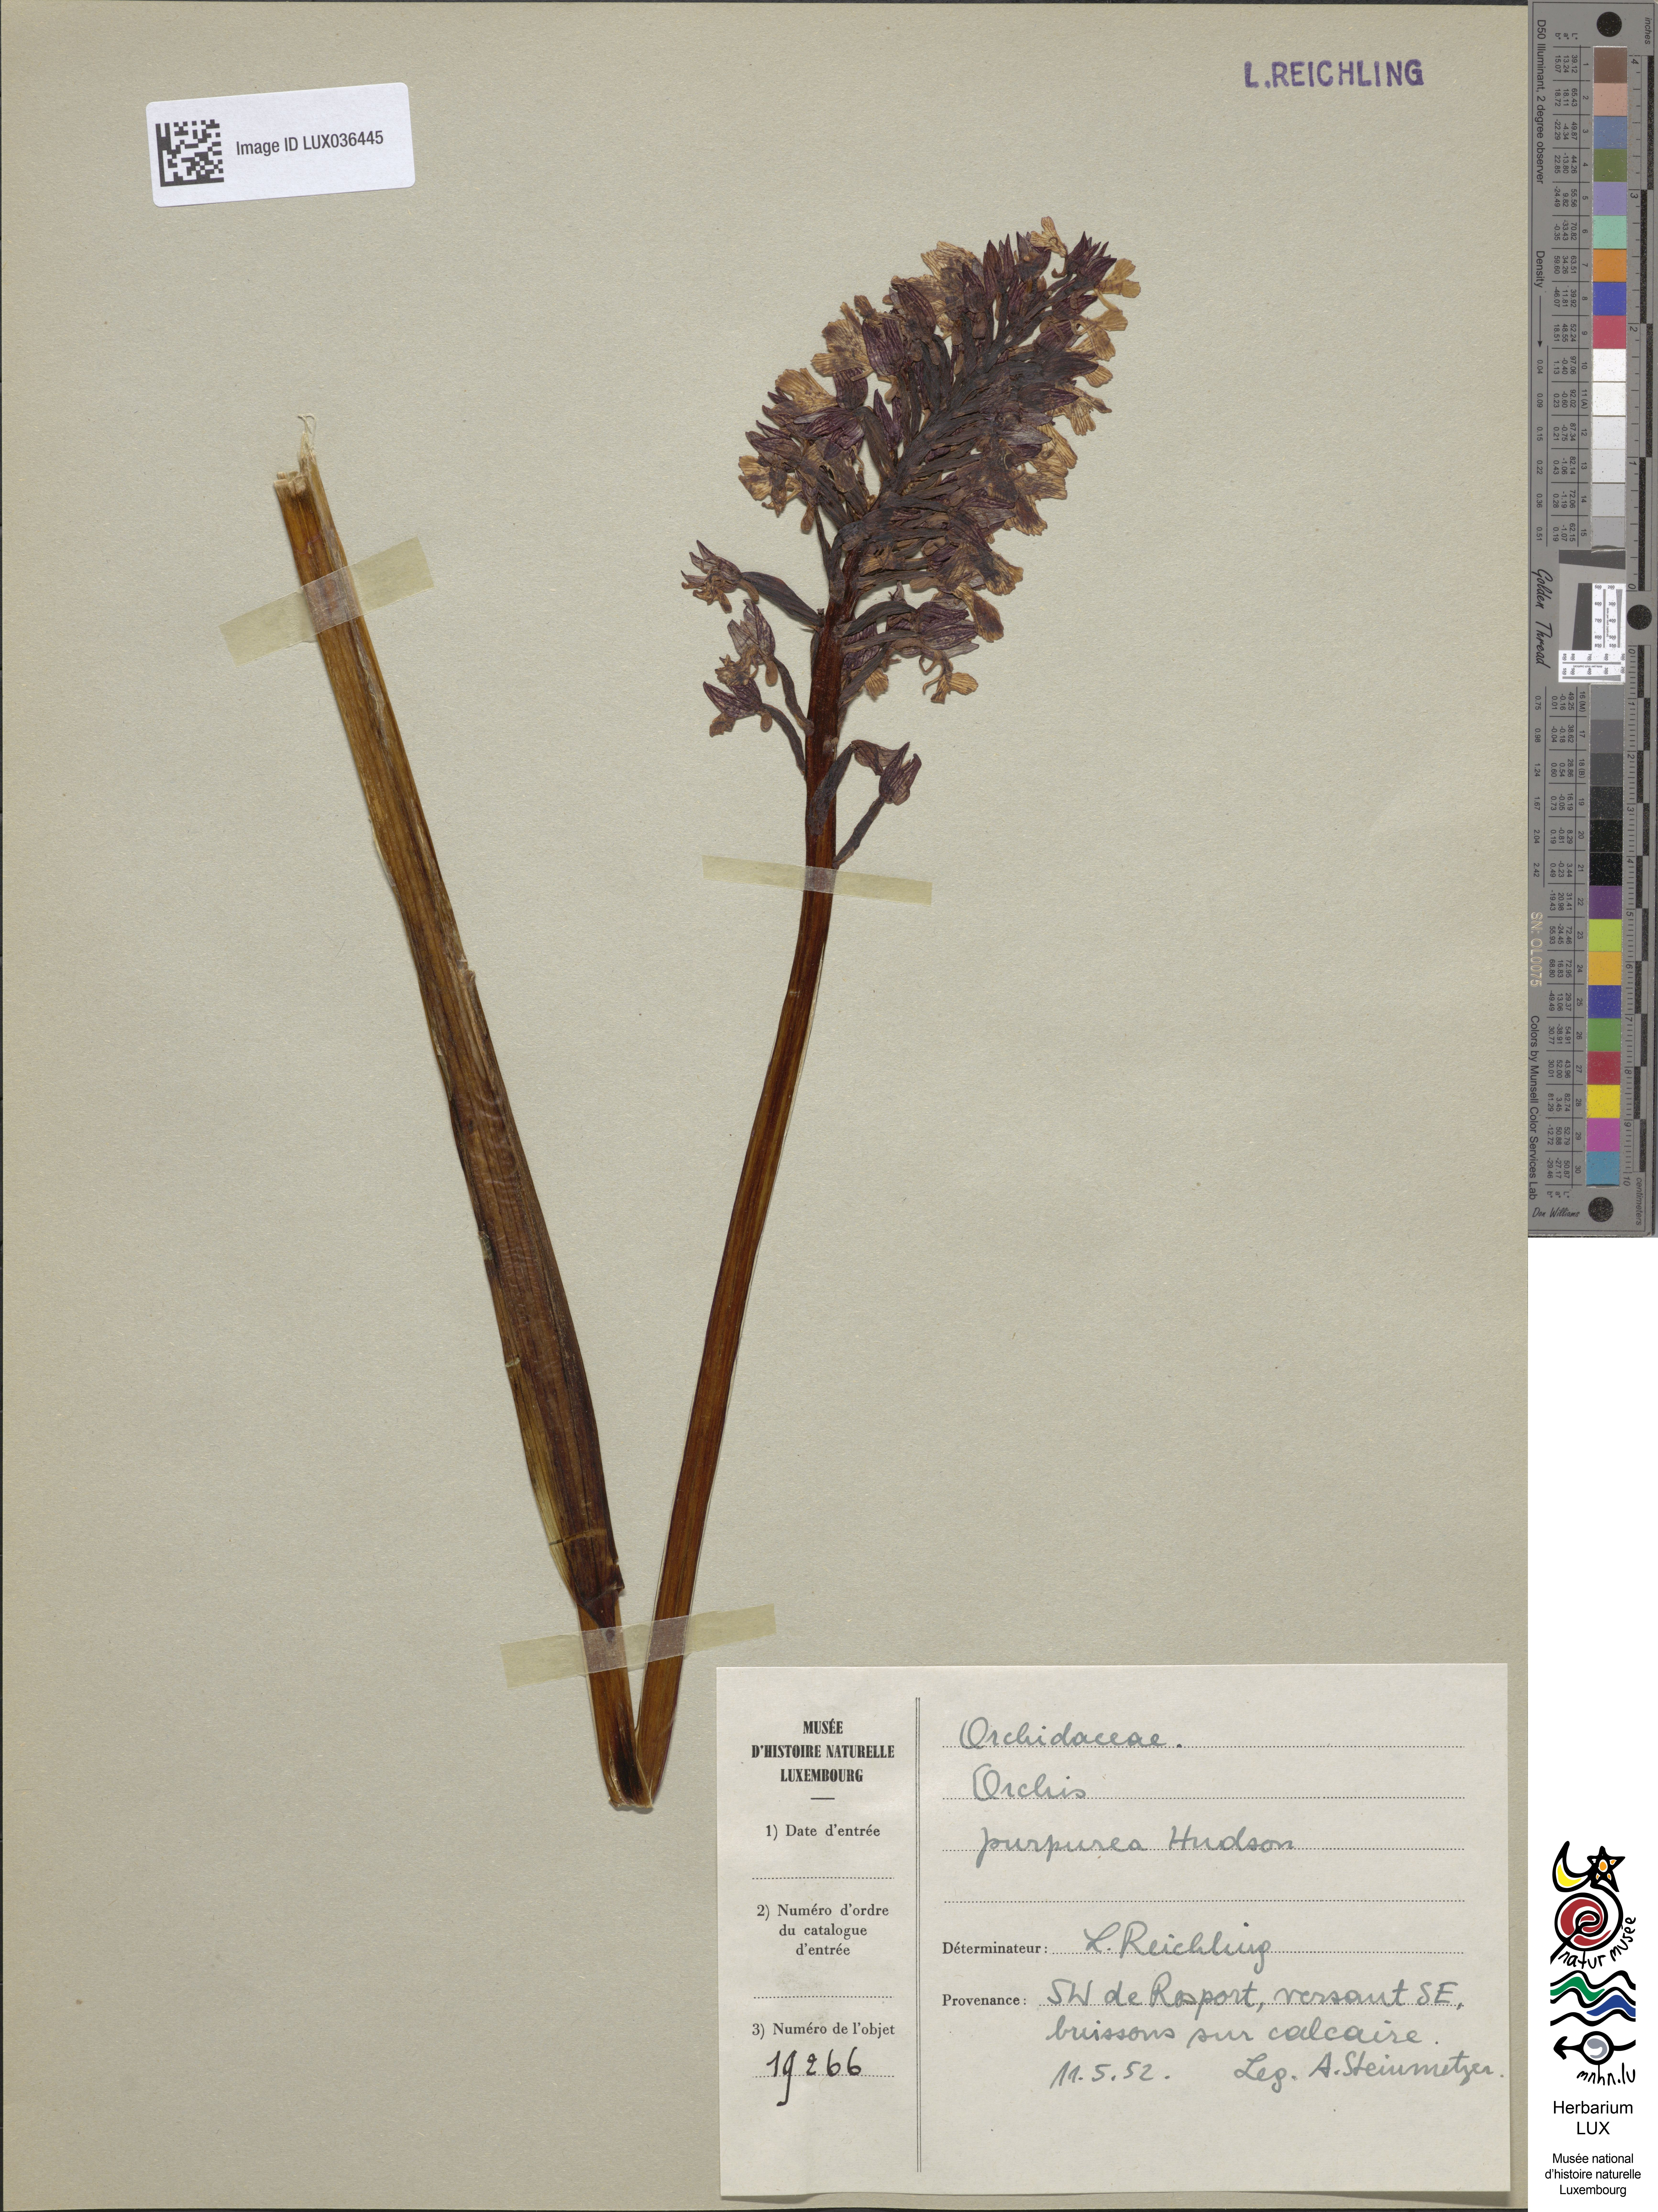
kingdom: Plantae
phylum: Tracheophyta
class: Liliopsida
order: Asparagales
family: Orchidaceae
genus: Orchis
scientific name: Orchis purpurea
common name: Lady orchid
